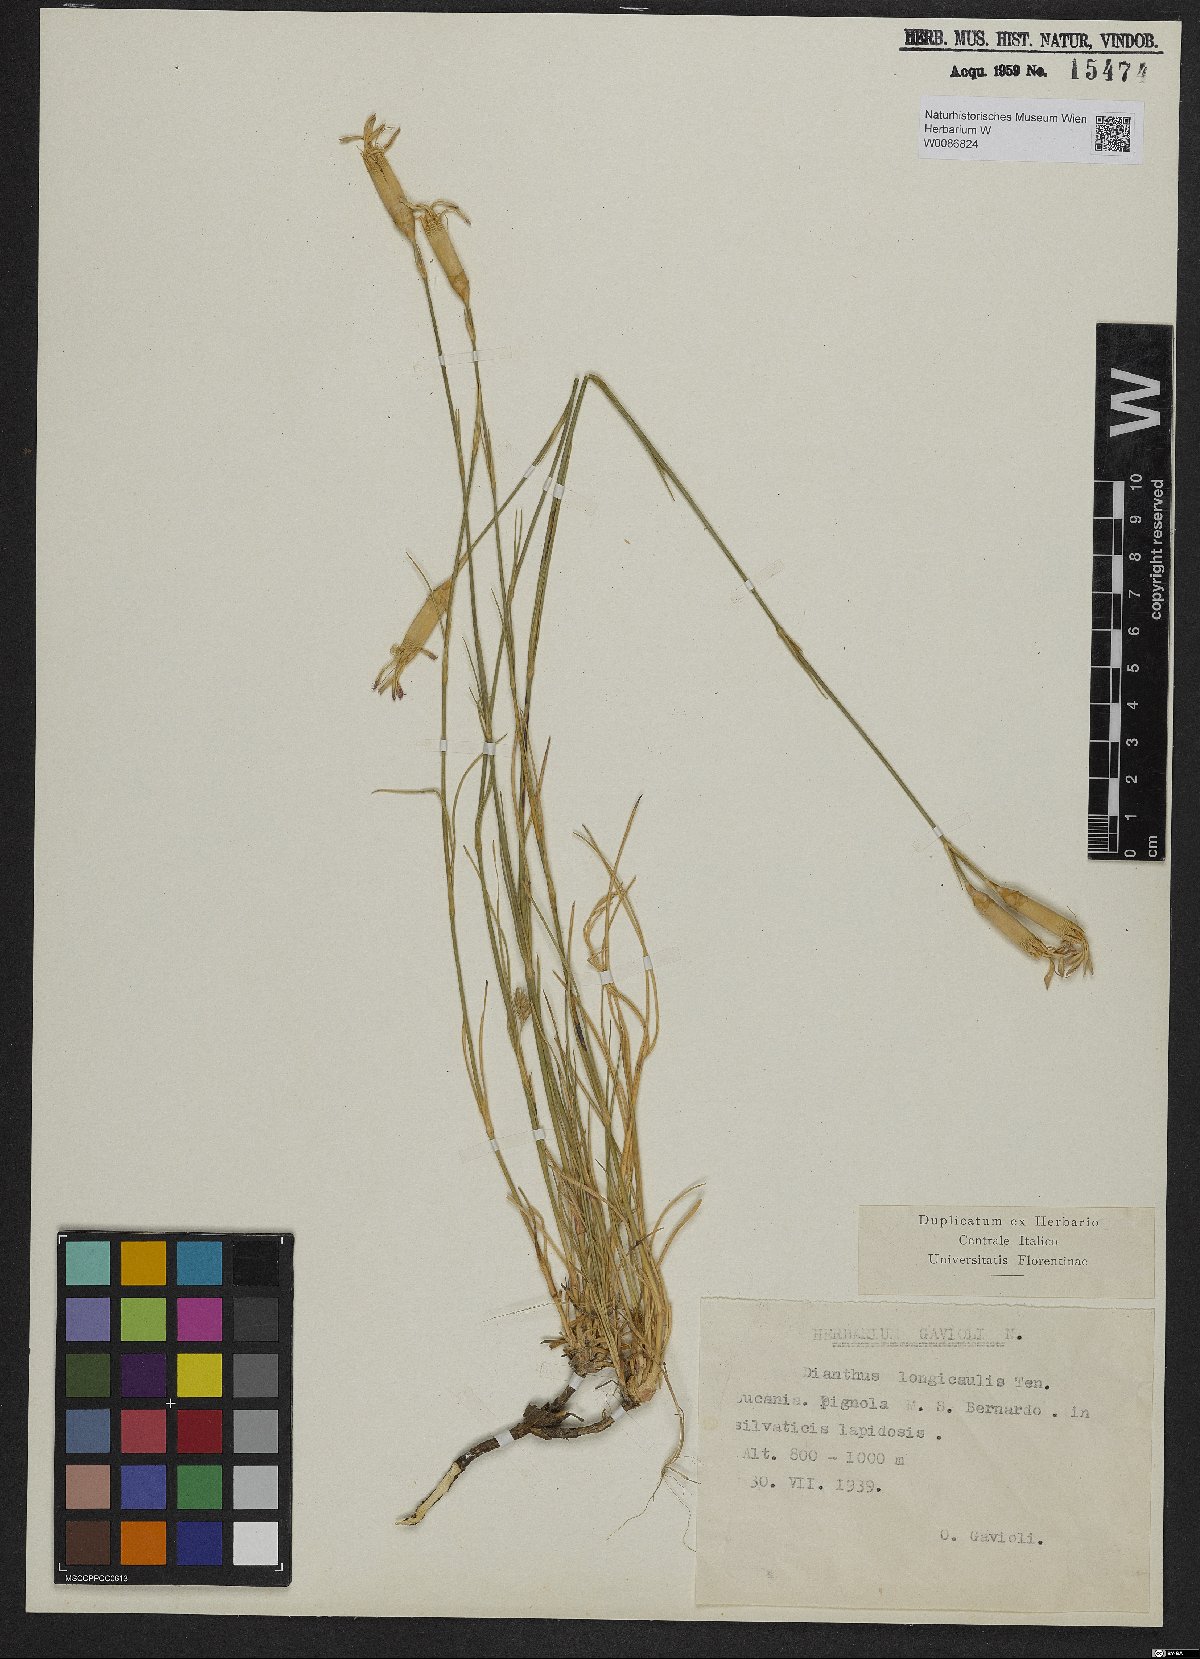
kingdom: Plantae
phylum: Tracheophyta
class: Magnoliopsida
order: Caryophyllales
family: Caryophyllaceae
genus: Dianthus
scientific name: Dianthus siculus
